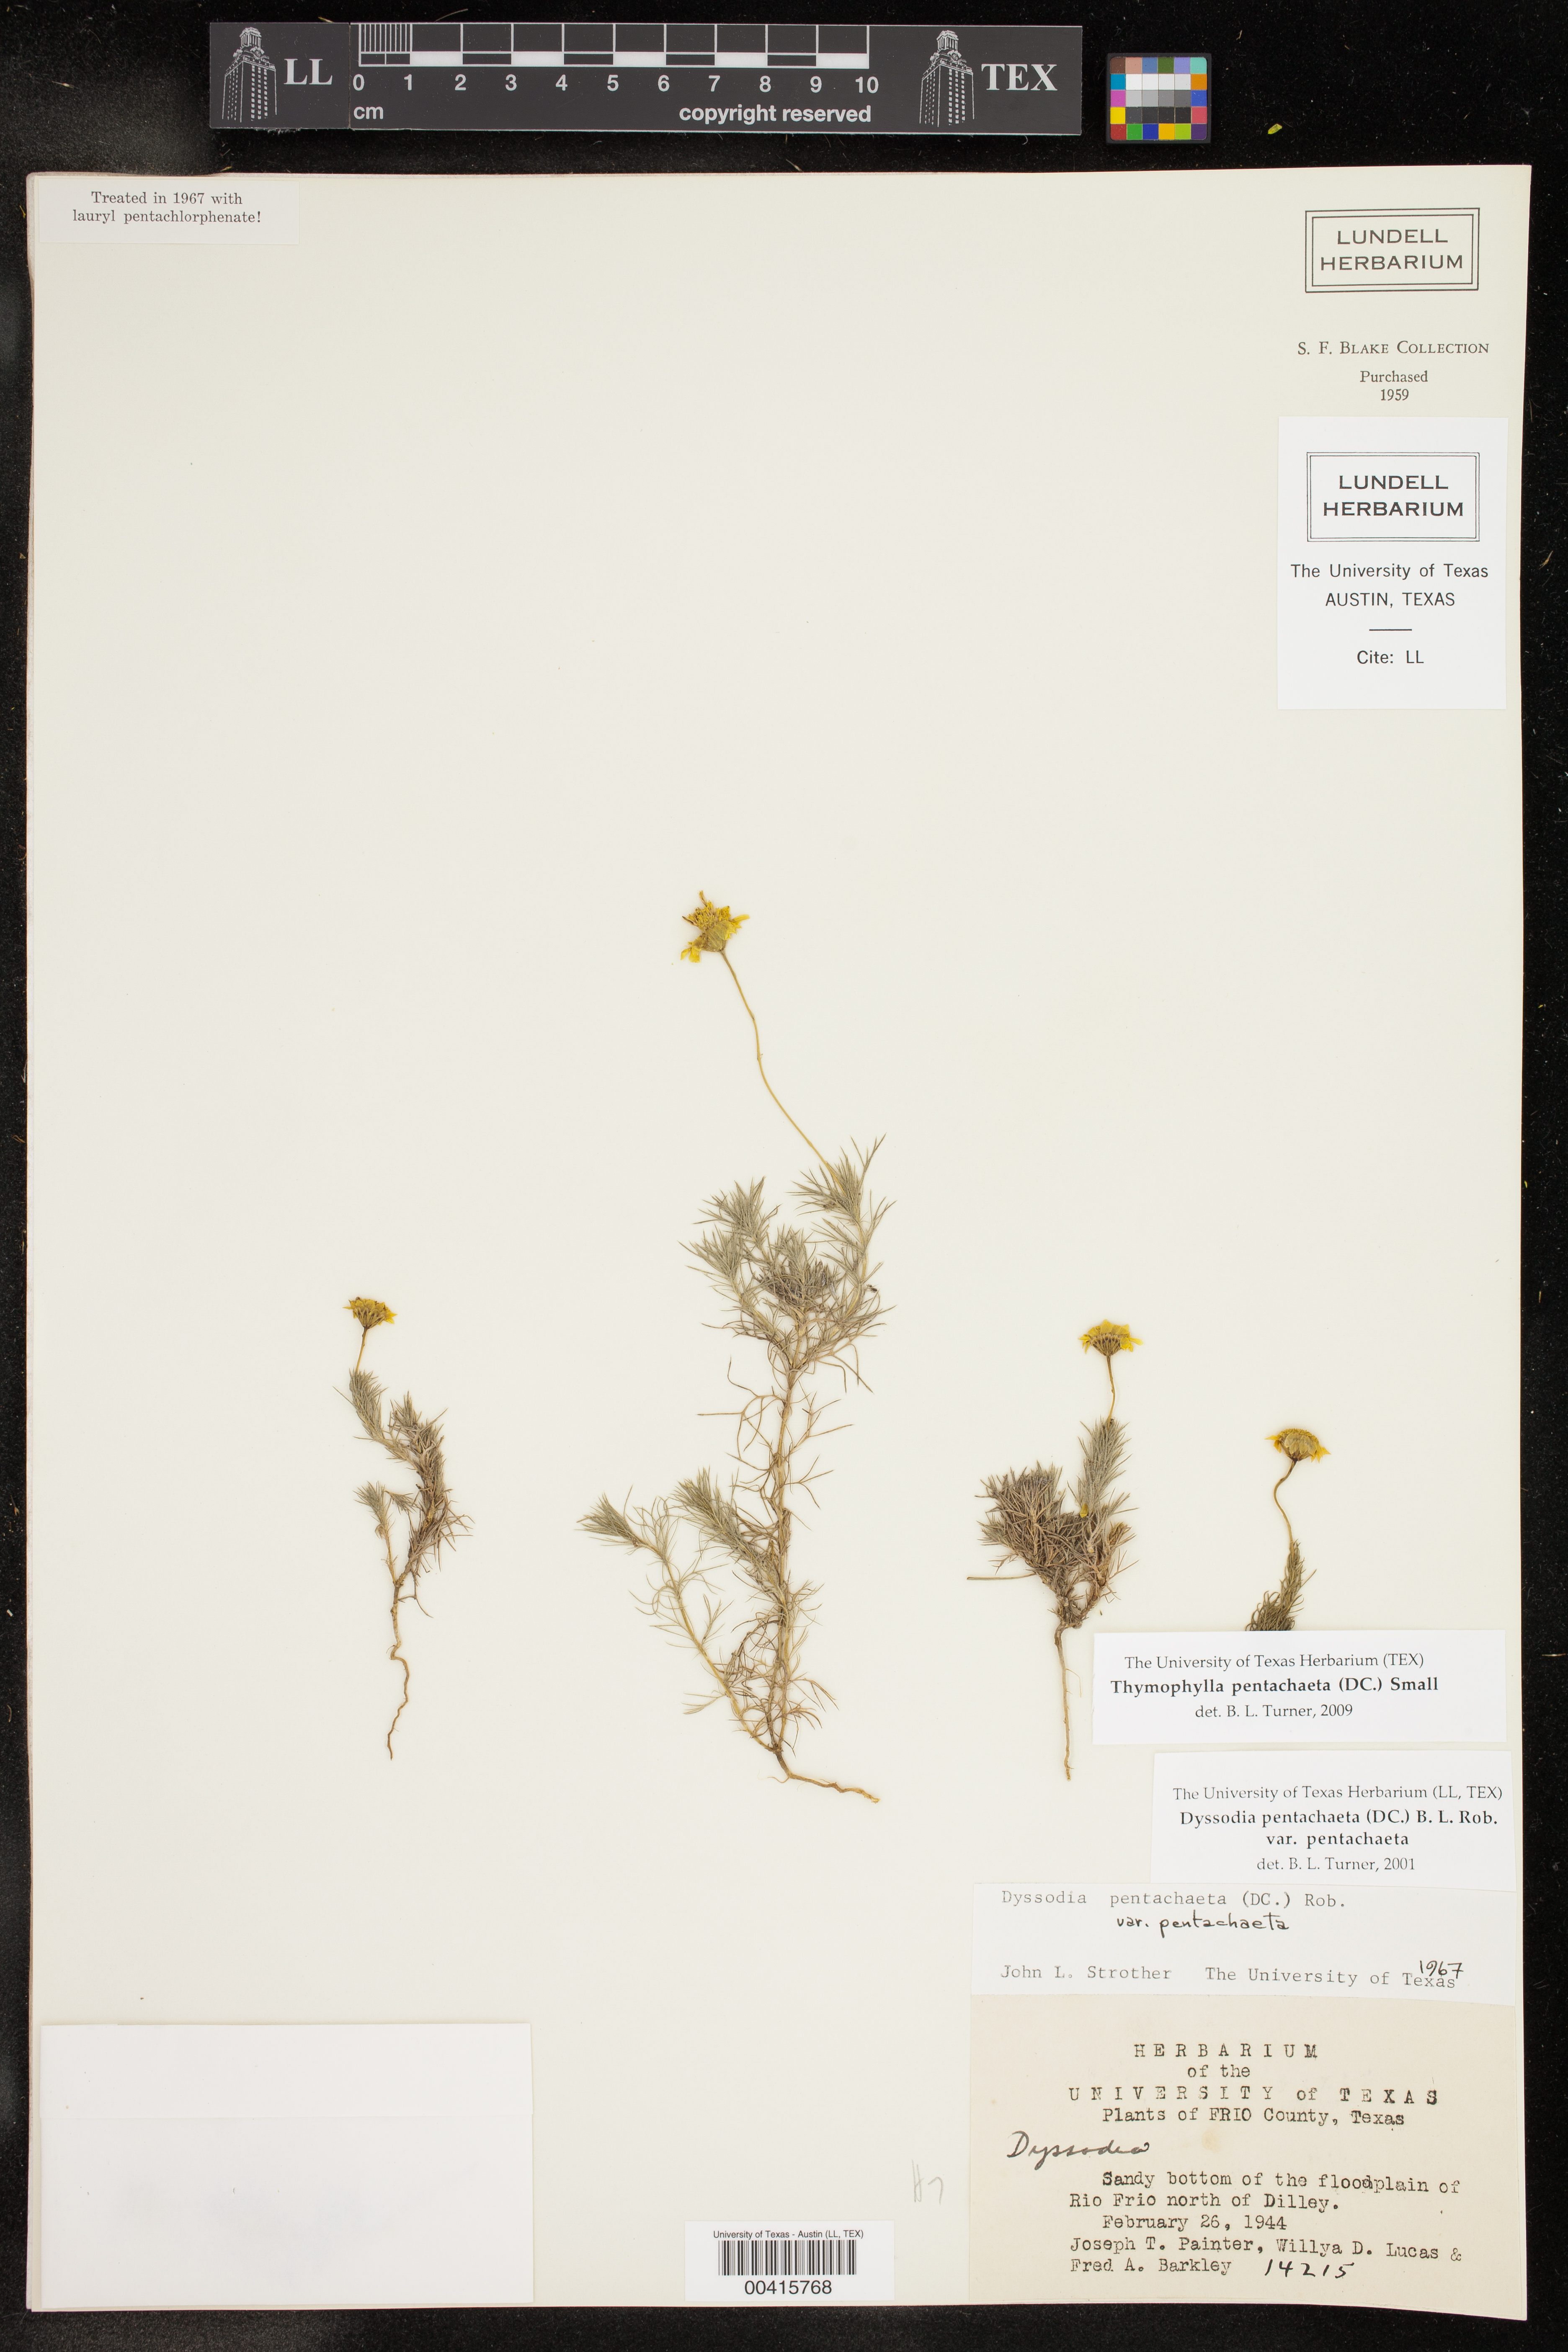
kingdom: Plantae
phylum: Tracheophyta
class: Magnoliopsida
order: Asterales
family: Asteraceae
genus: Thymophylla
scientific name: Thymophylla pentachaeta
